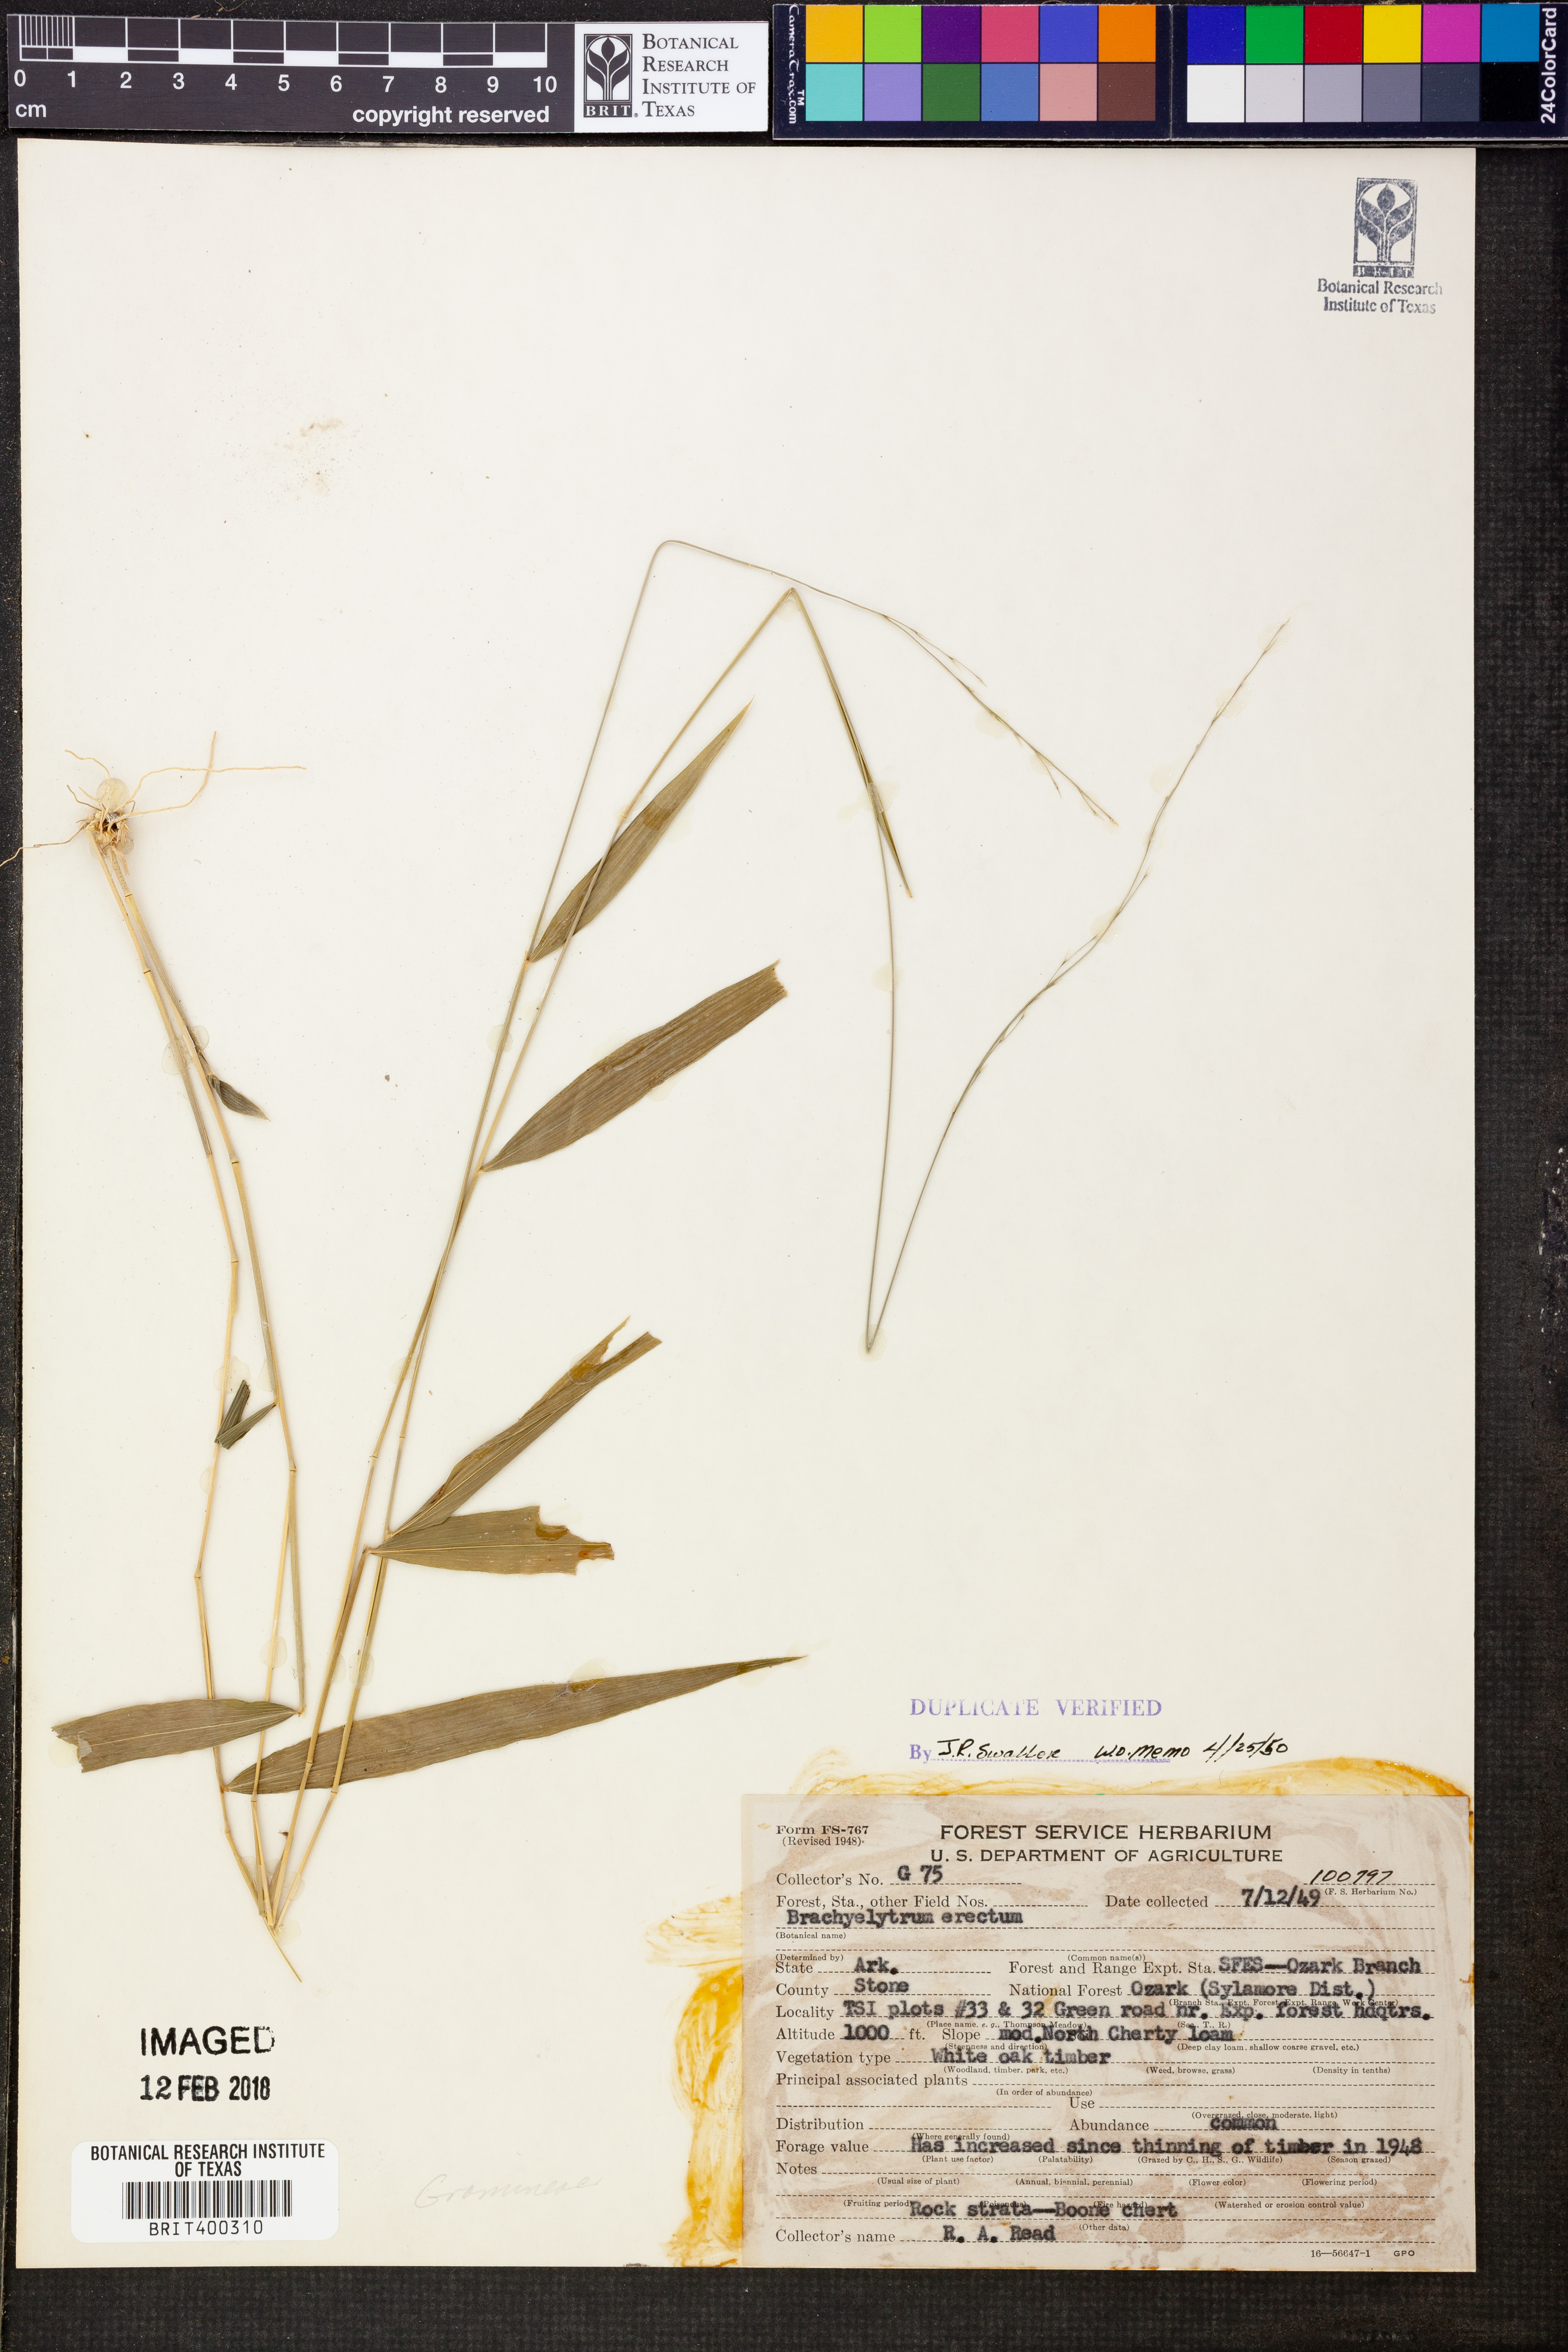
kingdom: Plantae
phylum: Tracheophyta
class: Liliopsida
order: Poales
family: Poaceae
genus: Brachyelytrum
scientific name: Brachyelytrum erectum
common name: Bearded shorthusk
